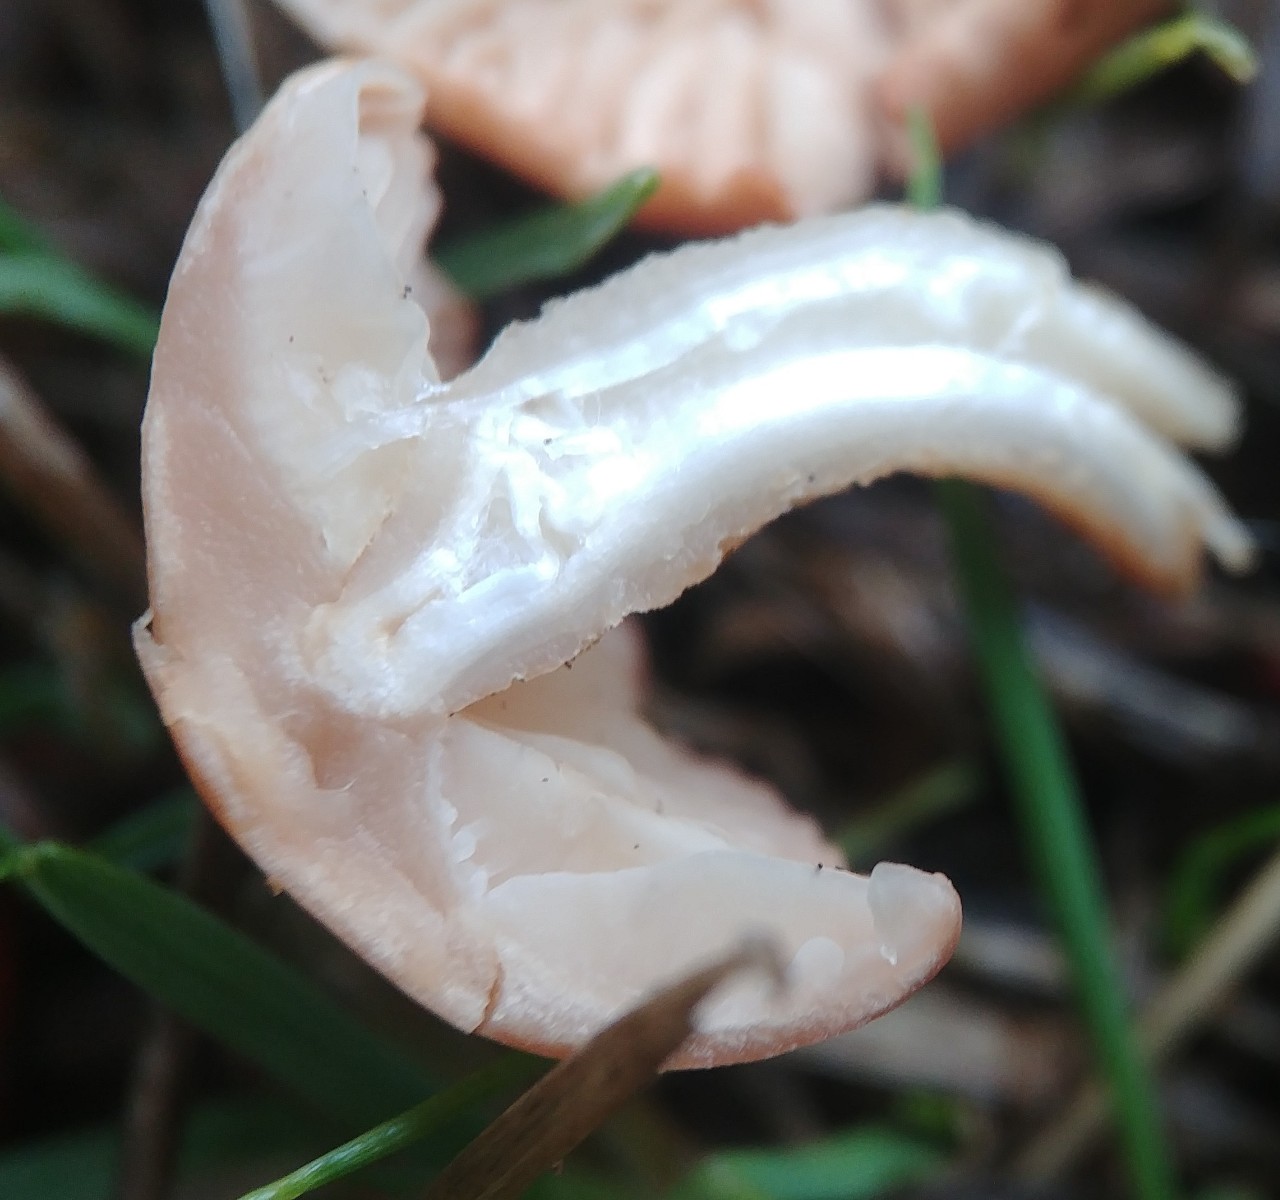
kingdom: Fungi
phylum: Basidiomycota
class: Agaricomycetes
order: Agaricales
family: Marasmiaceae
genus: Marasmius
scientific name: Marasmius oreades
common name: elledans-bruskhat
